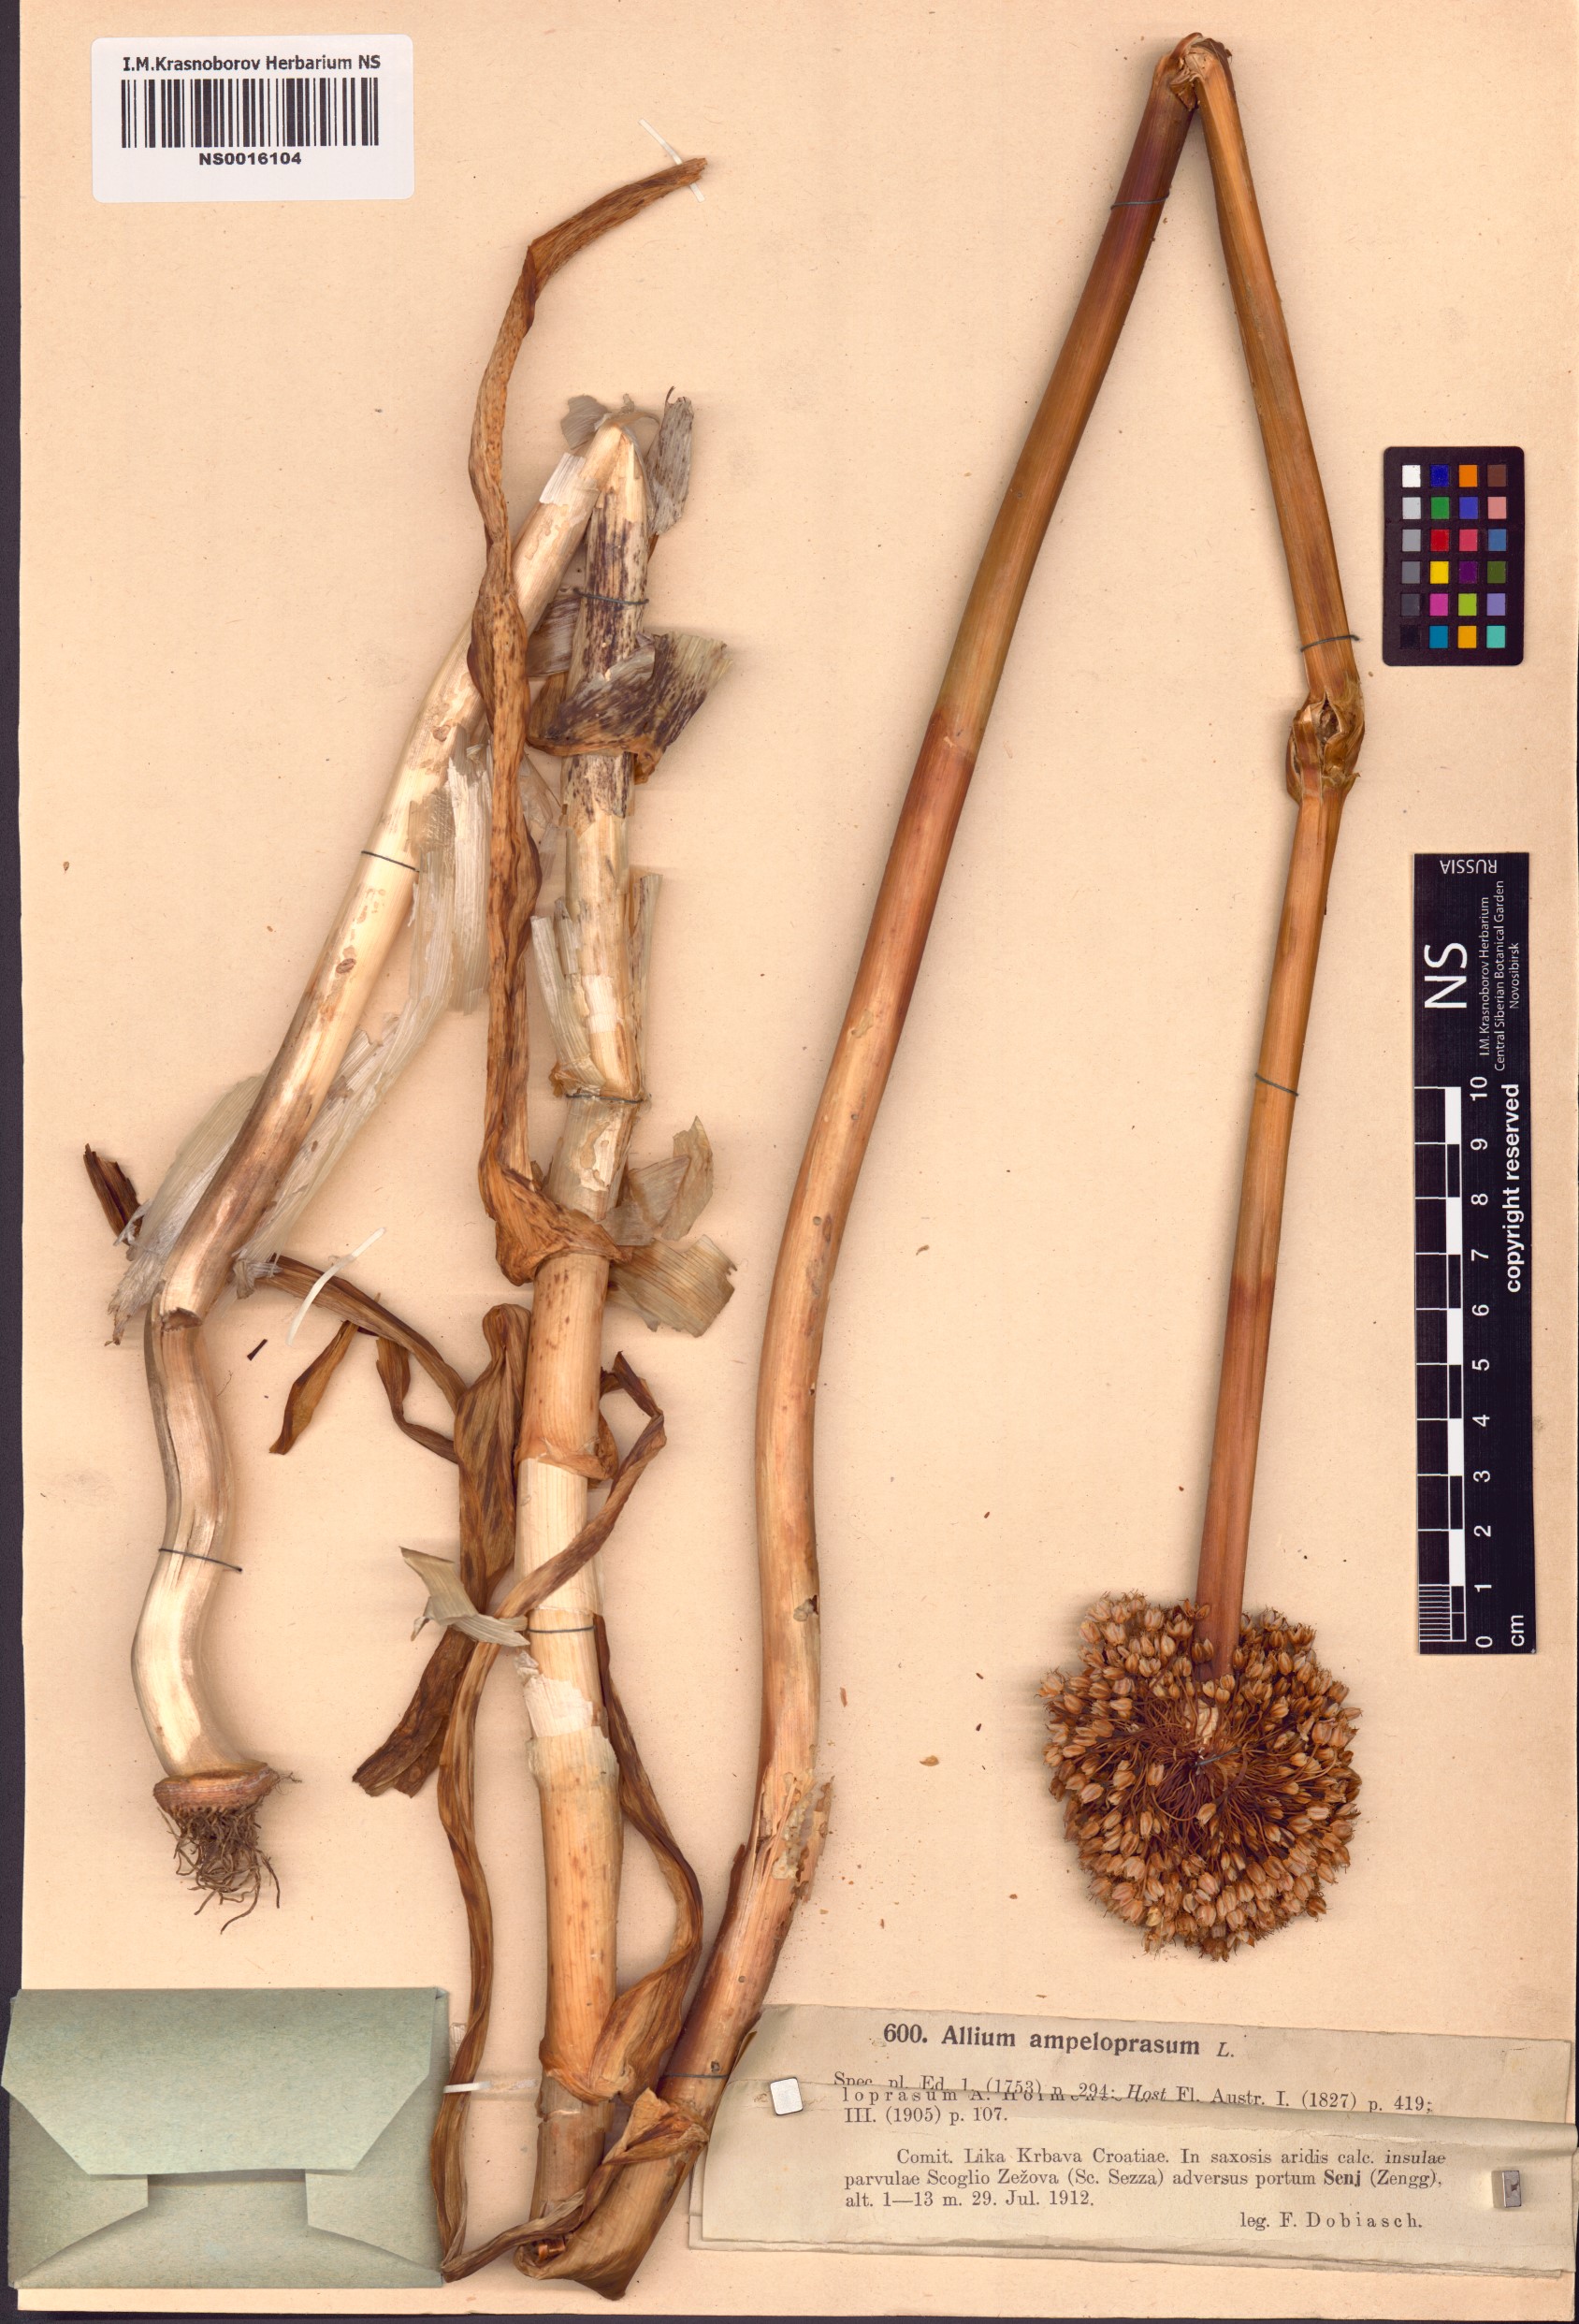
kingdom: Plantae
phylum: Tracheophyta
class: Liliopsida
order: Asparagales
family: Amaryllidaceae
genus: Allium
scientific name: Allium ampeloprasum
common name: Wild leek
